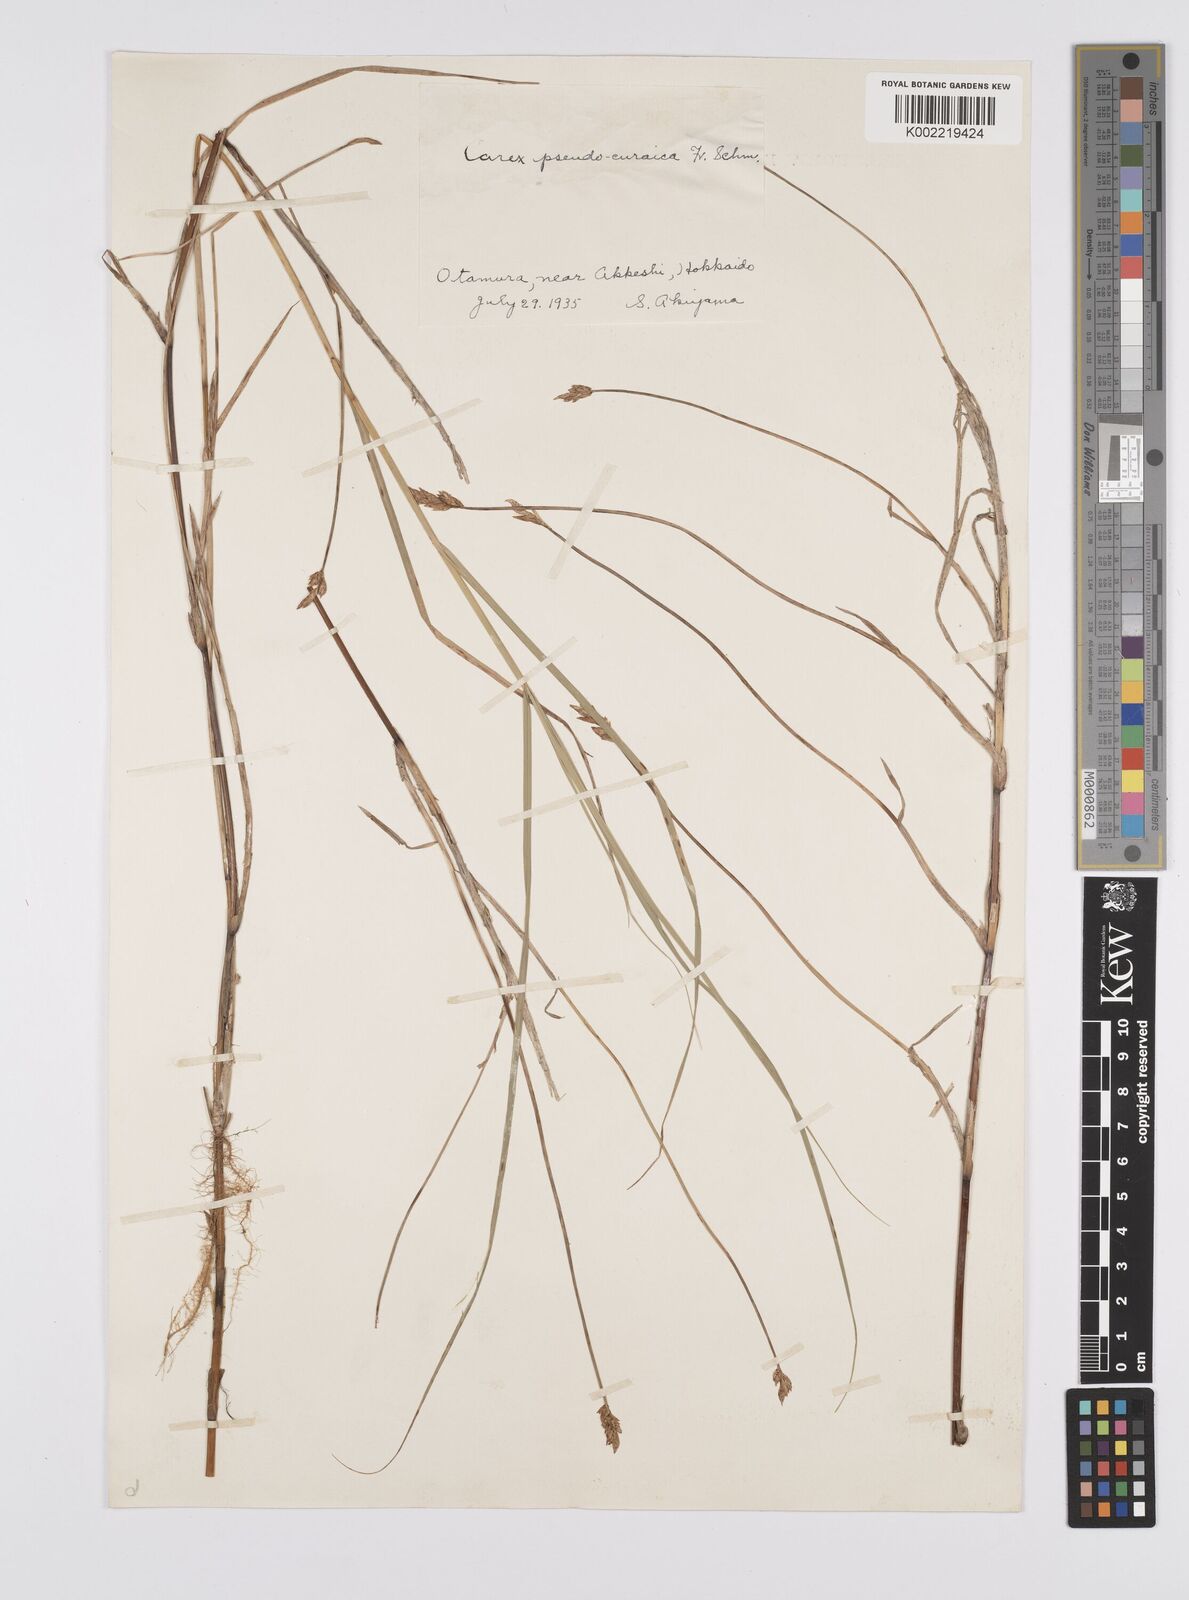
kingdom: Plantae
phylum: Tracheophyta
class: Liliopsida
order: Poales
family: Cyperaceae
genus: Carex
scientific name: Carex pseudocuraica
